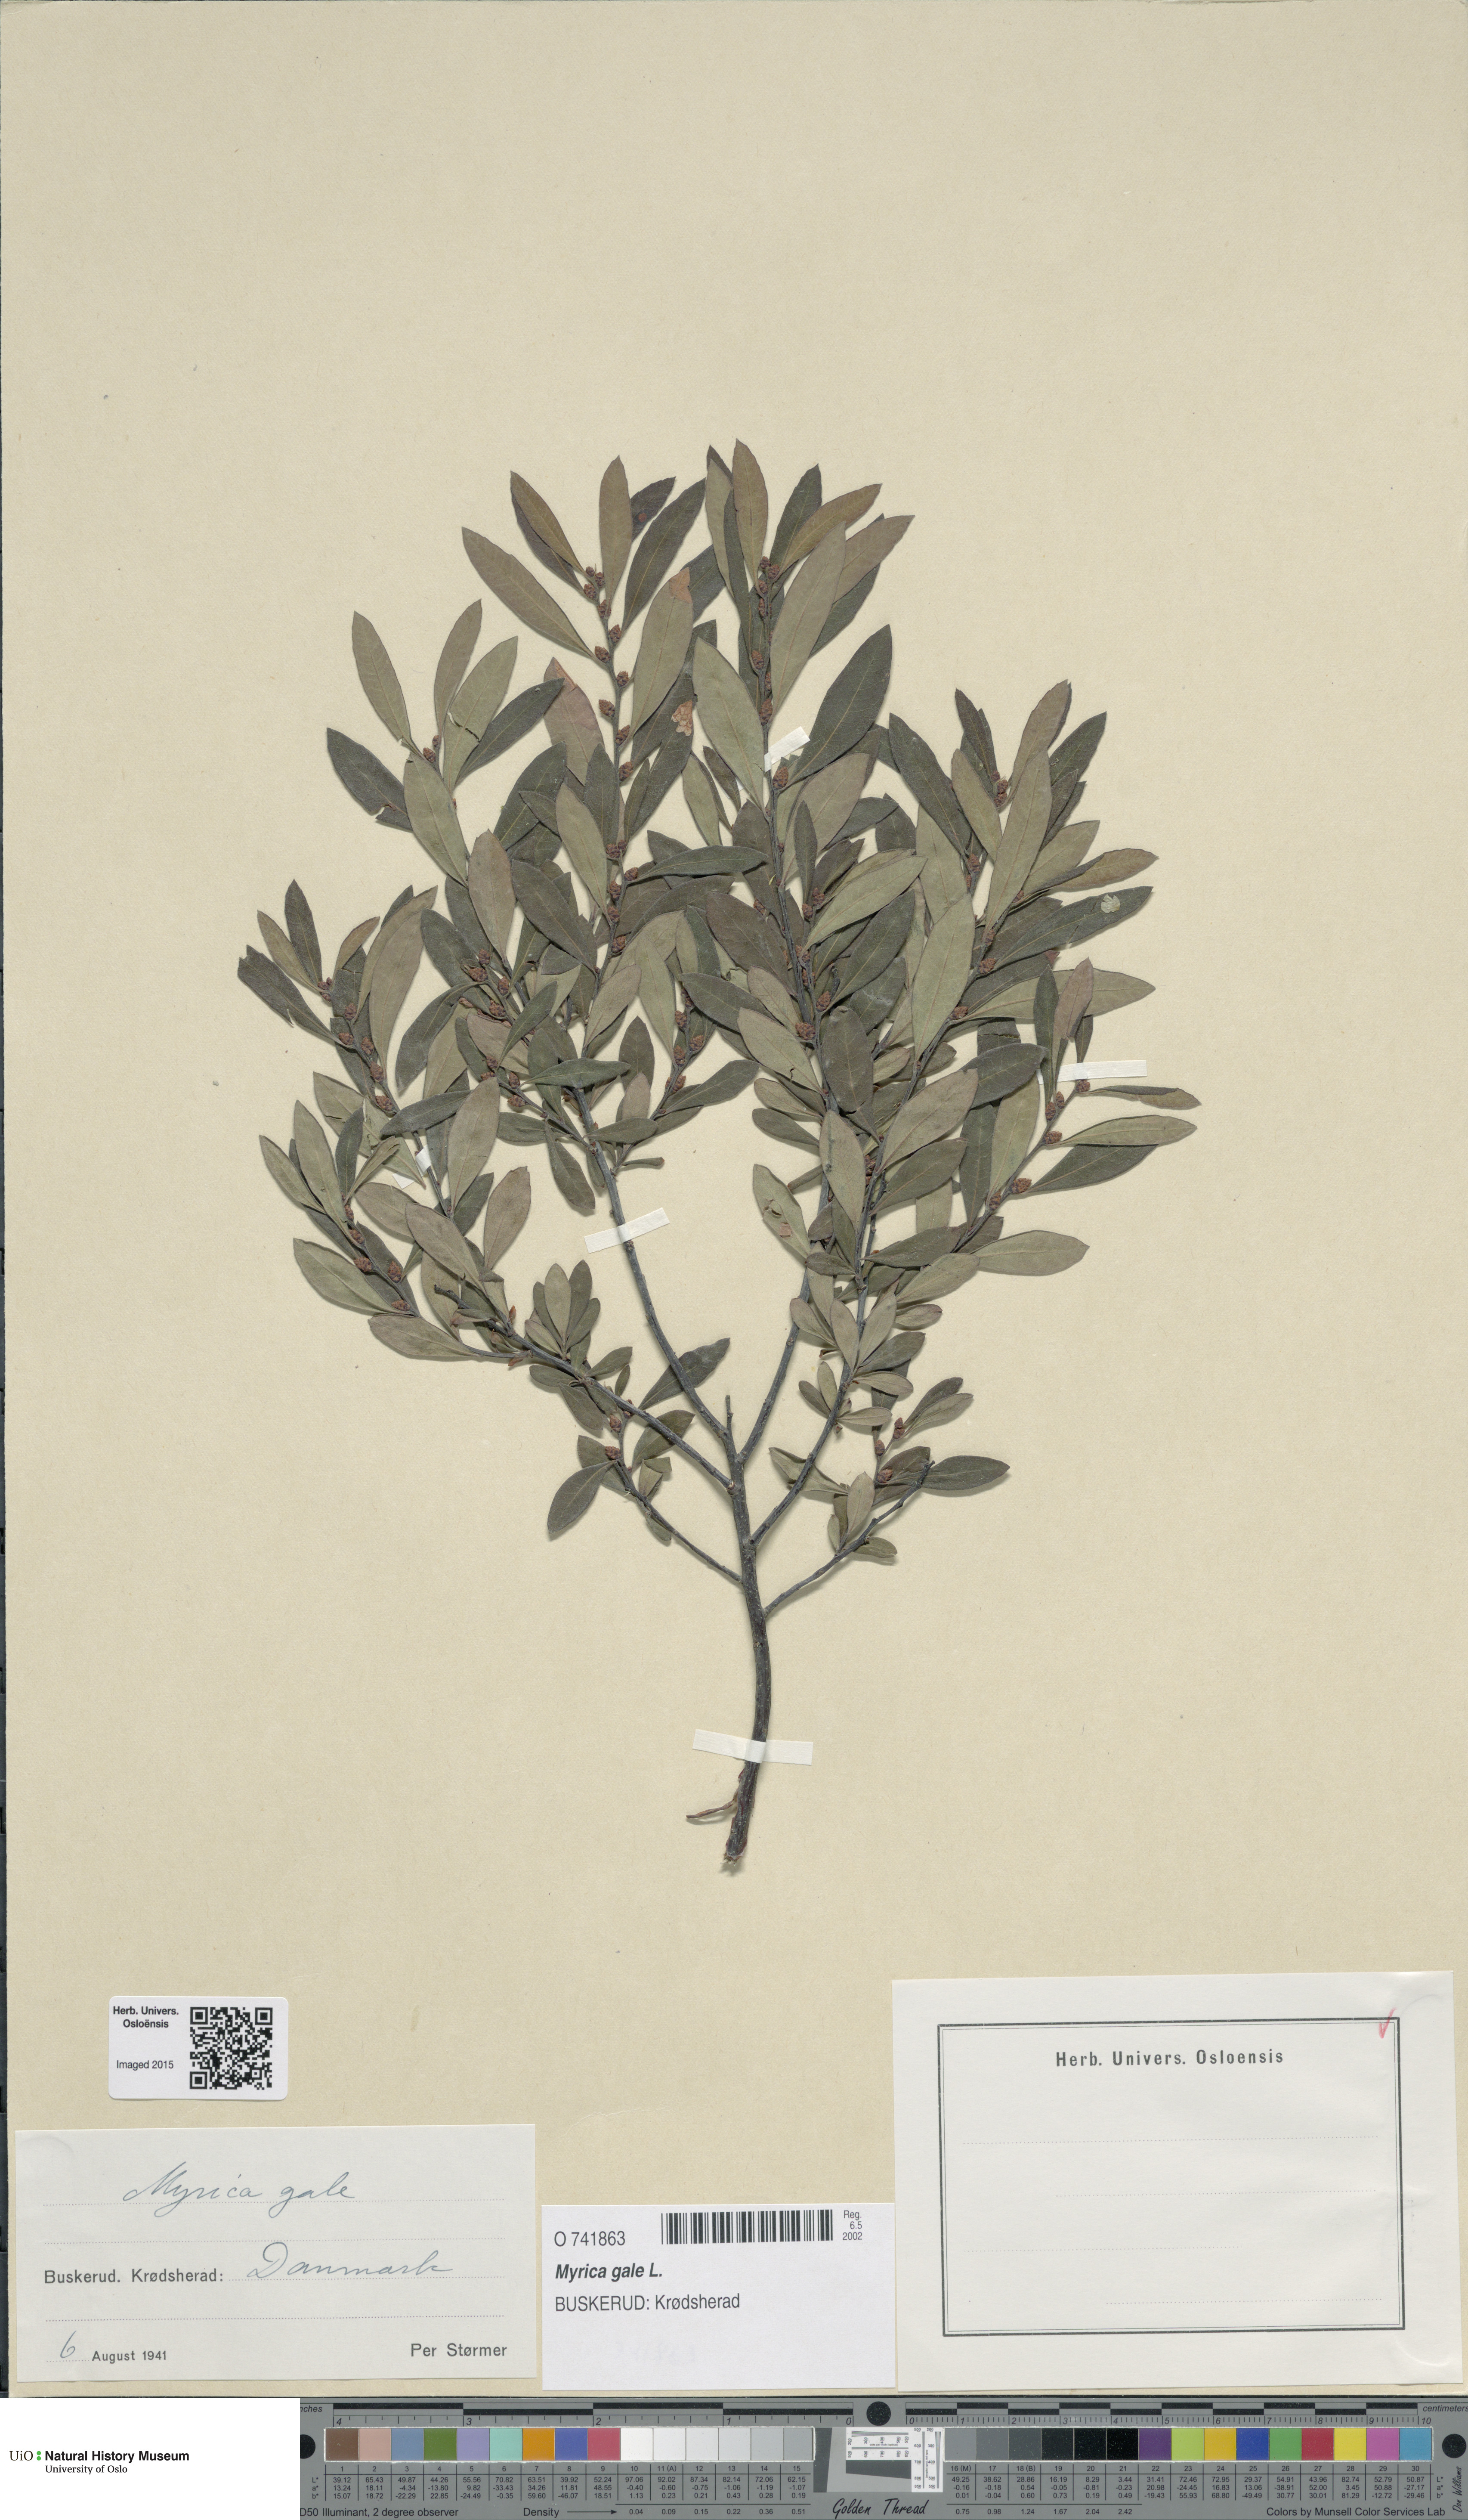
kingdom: Plantae
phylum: Tracheophyta
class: Magnoliopsida
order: Fagales
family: Myricaceae
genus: Myrica
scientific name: Myrica gale
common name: Sweet gale
